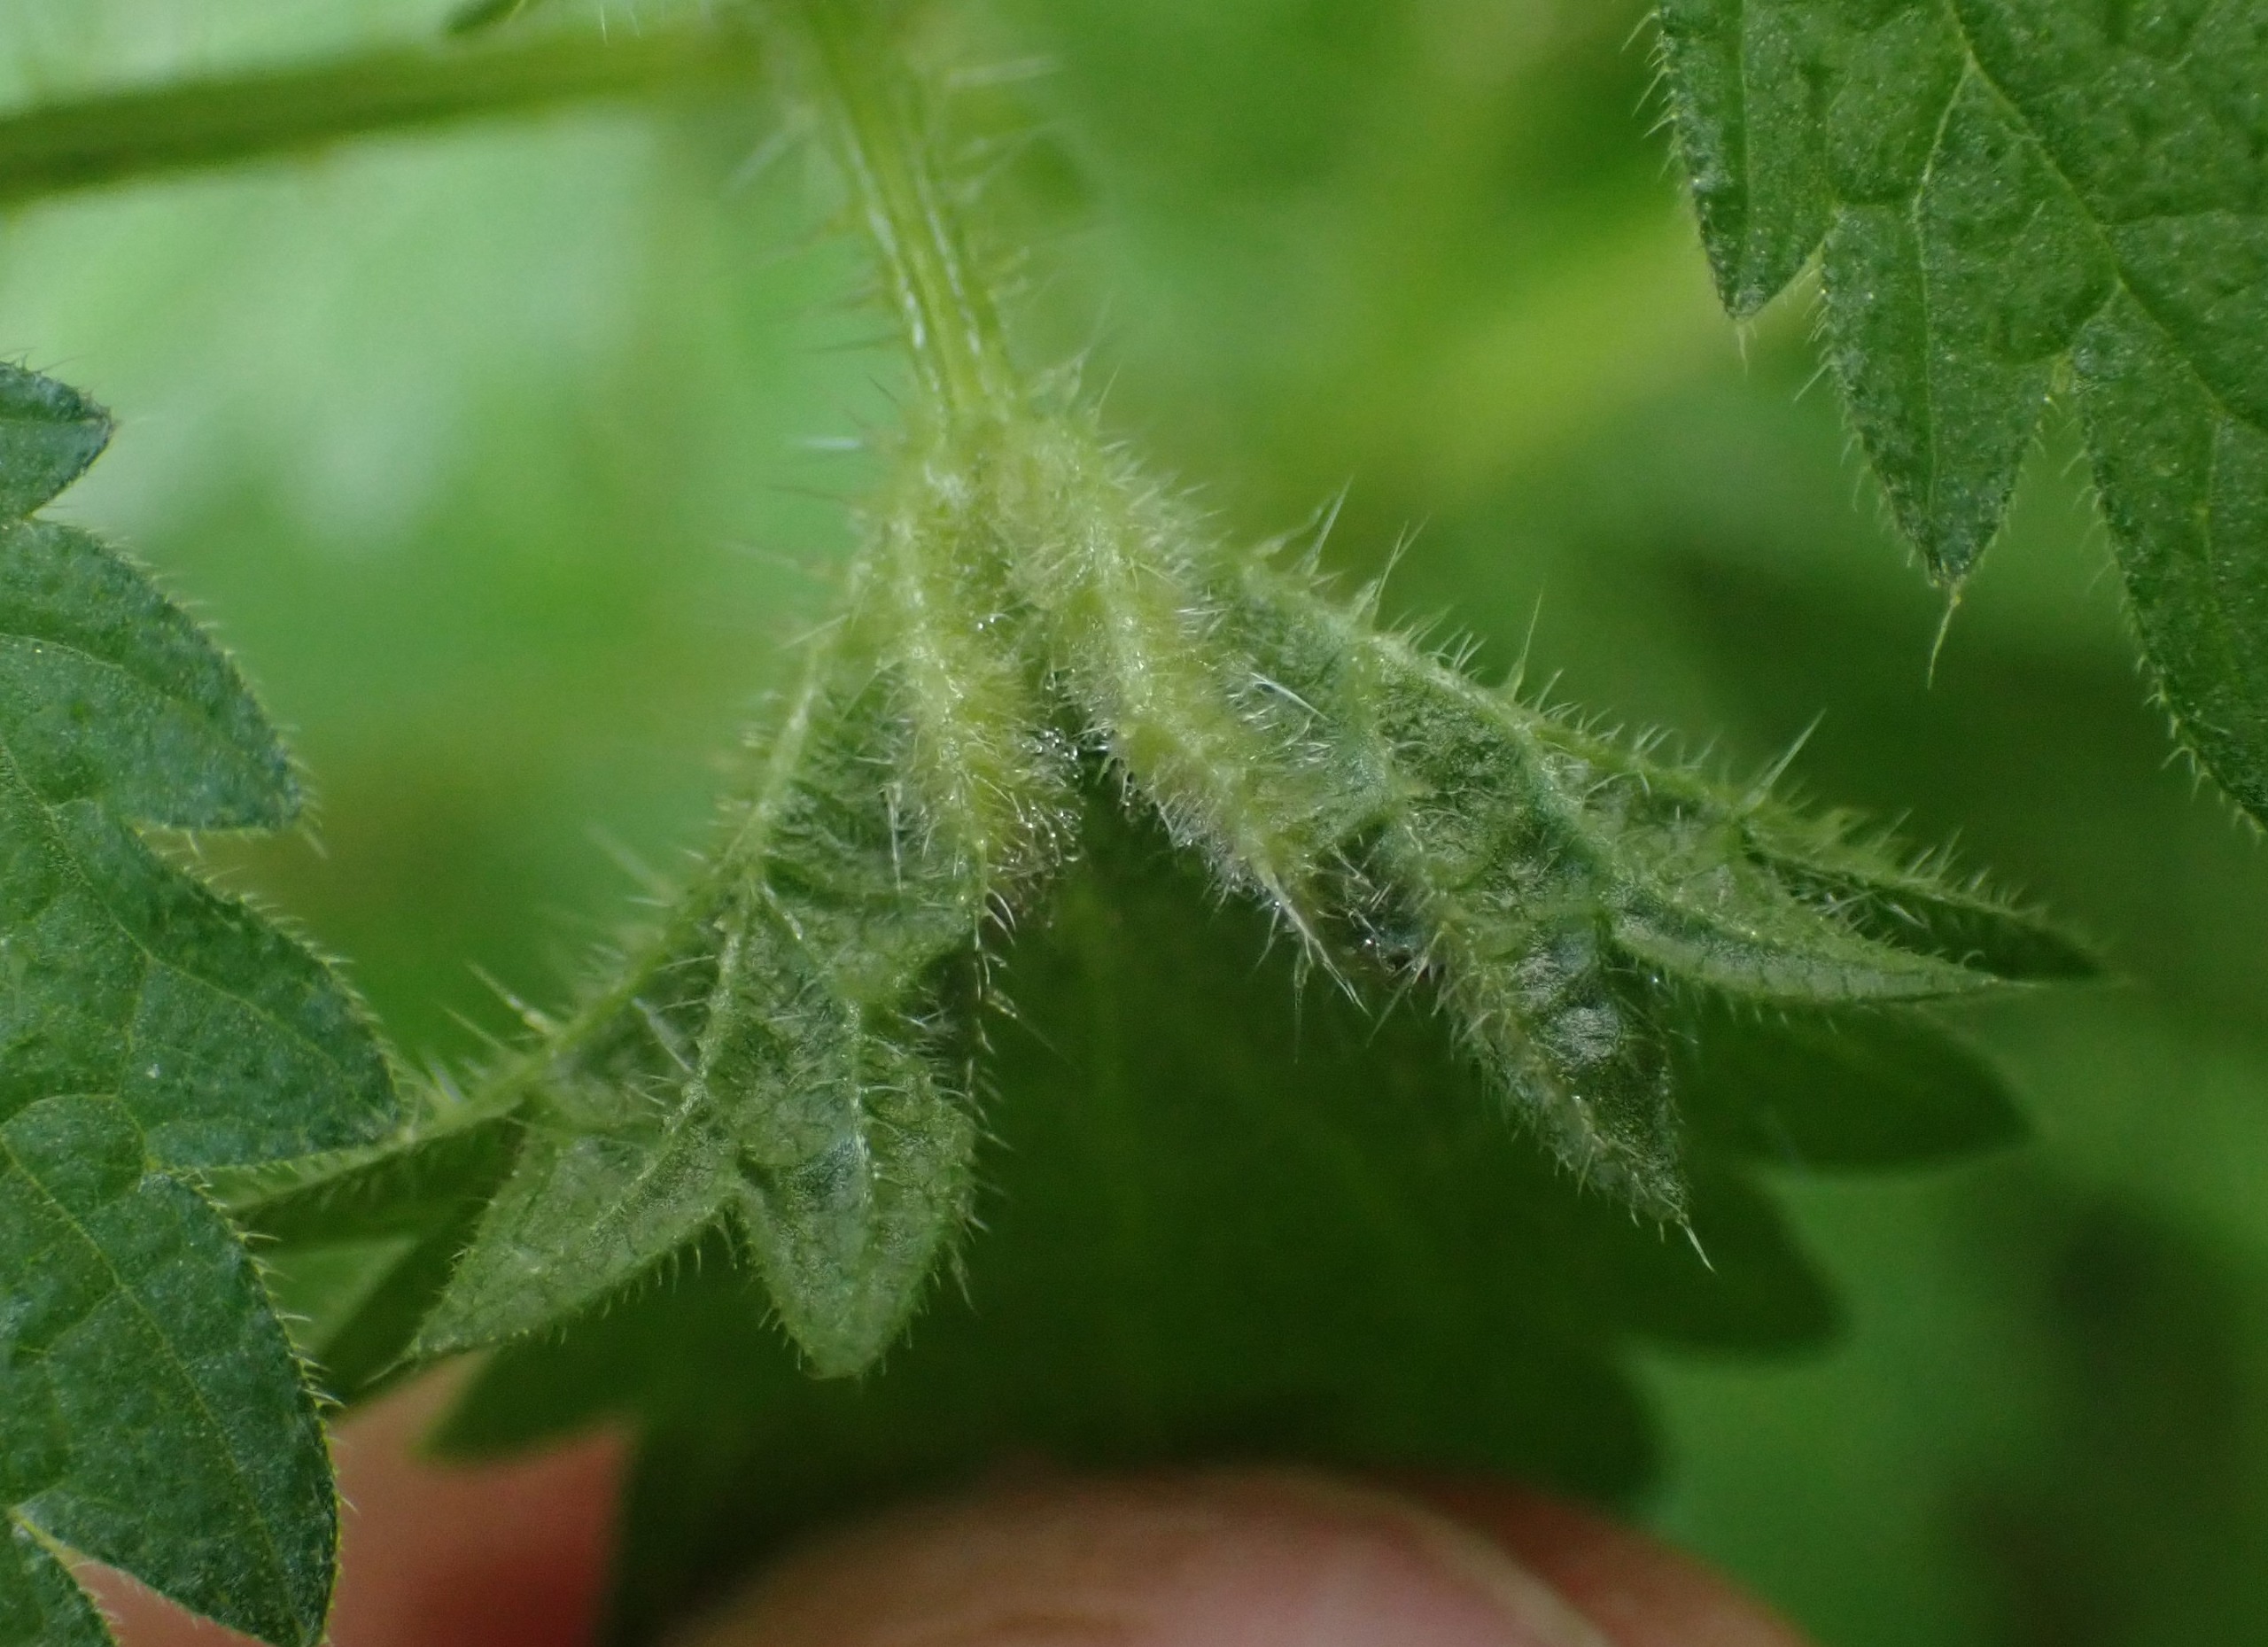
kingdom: Animalia
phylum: Arthropoda
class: Insecta
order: Diptera
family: Cecidomyiidae
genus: Dasineura
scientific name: Dasineura dioicae
